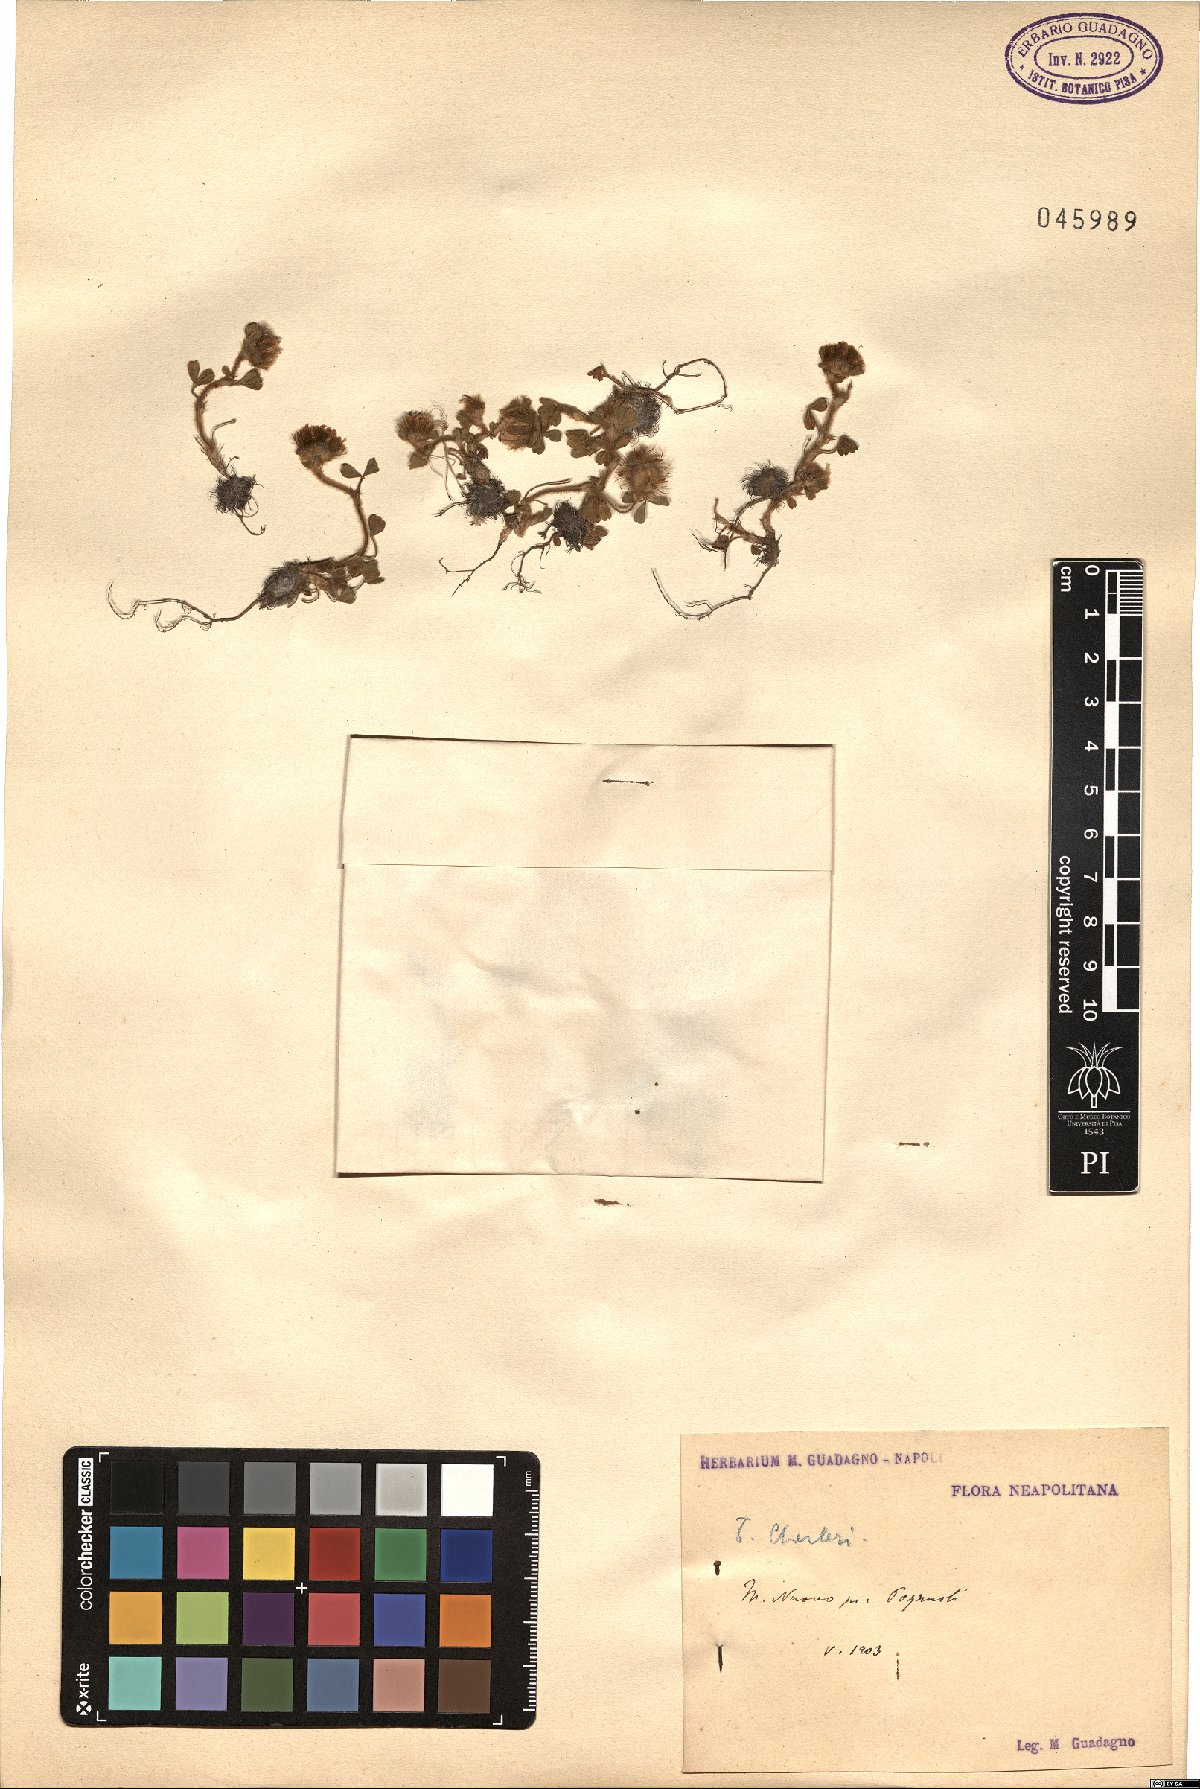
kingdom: Plantae
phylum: Tracheophyta
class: Magnoliopsida
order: Fabales
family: Fabaceae
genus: Trifolium
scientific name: Trifolium cherleri
